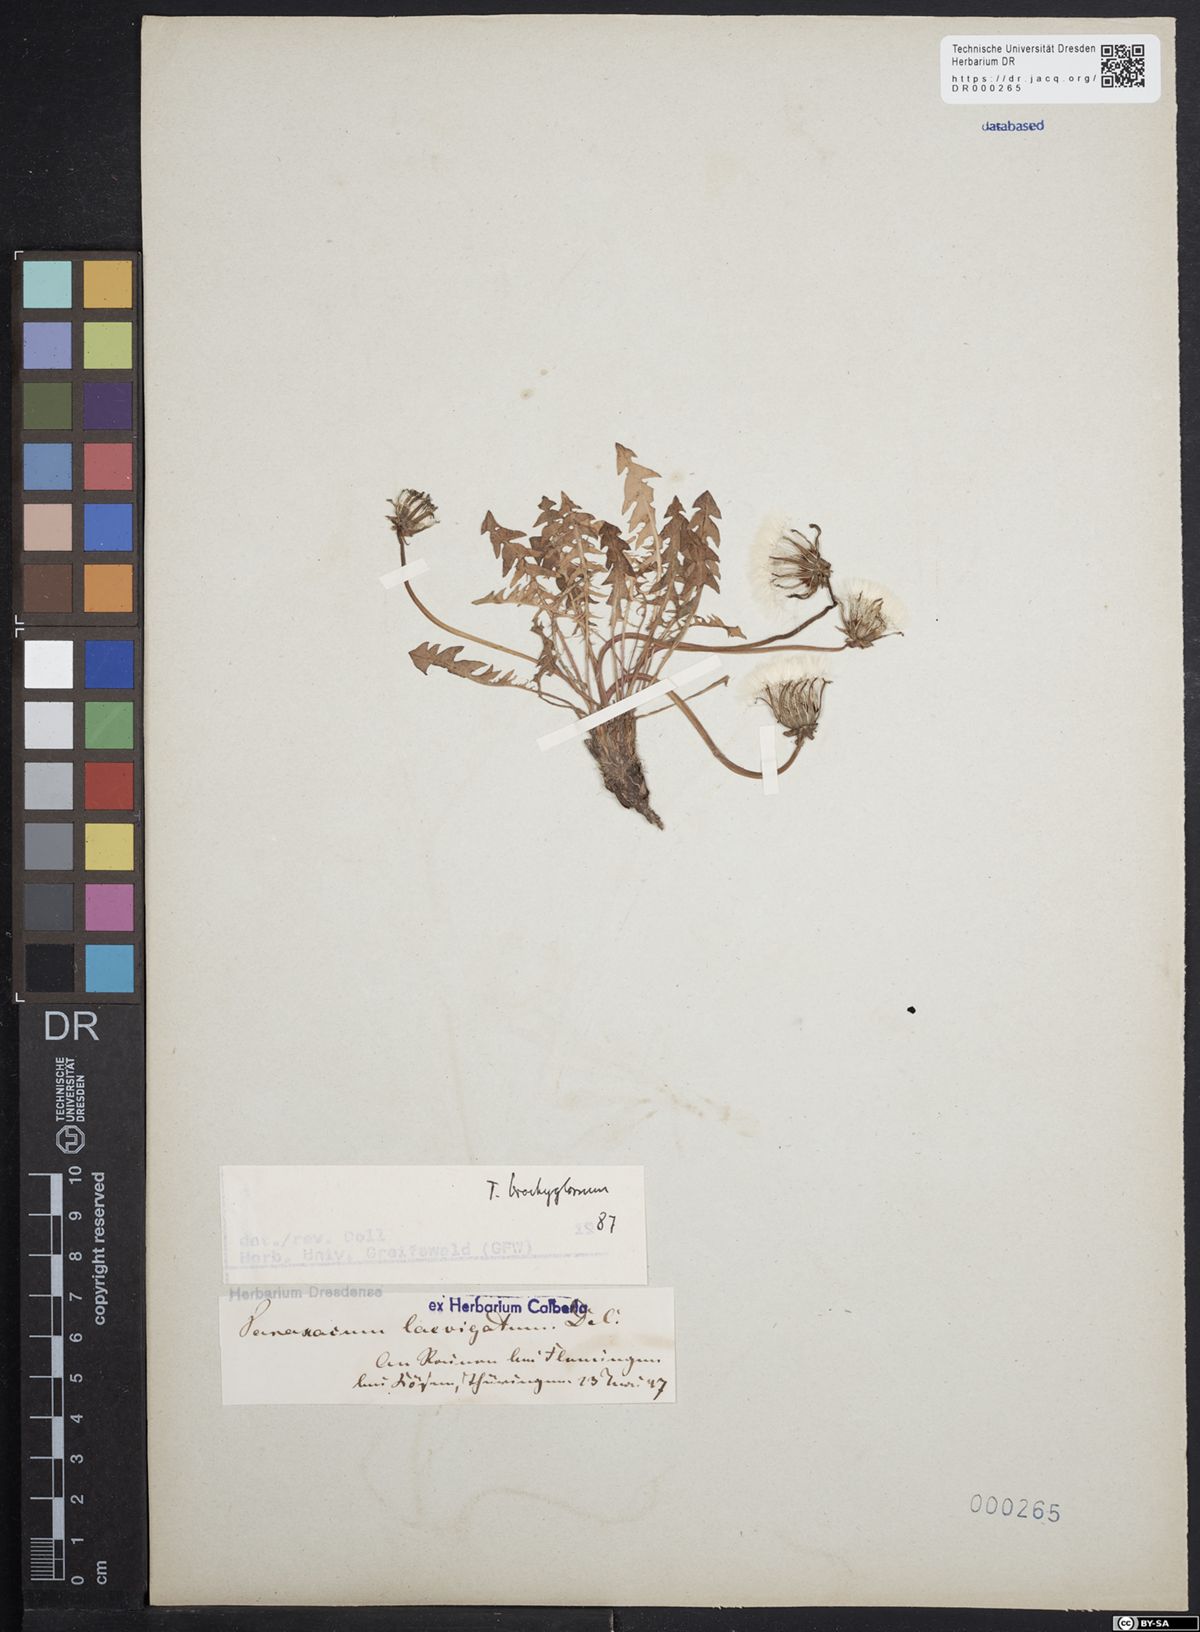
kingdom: Plantae
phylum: Tracheophyta
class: Magnoliopsida
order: Asterales
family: Asteraceae
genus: Taraxacum
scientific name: Taraxacum erythrospermum
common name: Rock dandelion
